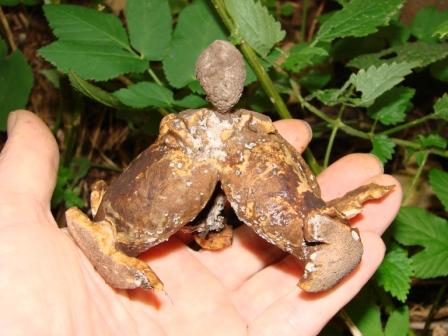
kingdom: Fungi
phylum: Basidiomycota
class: Agaricomycetes
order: Geastrales
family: Geastraceae
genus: Geastrum
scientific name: Geastrum melanocephalum
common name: håret stjernebold
